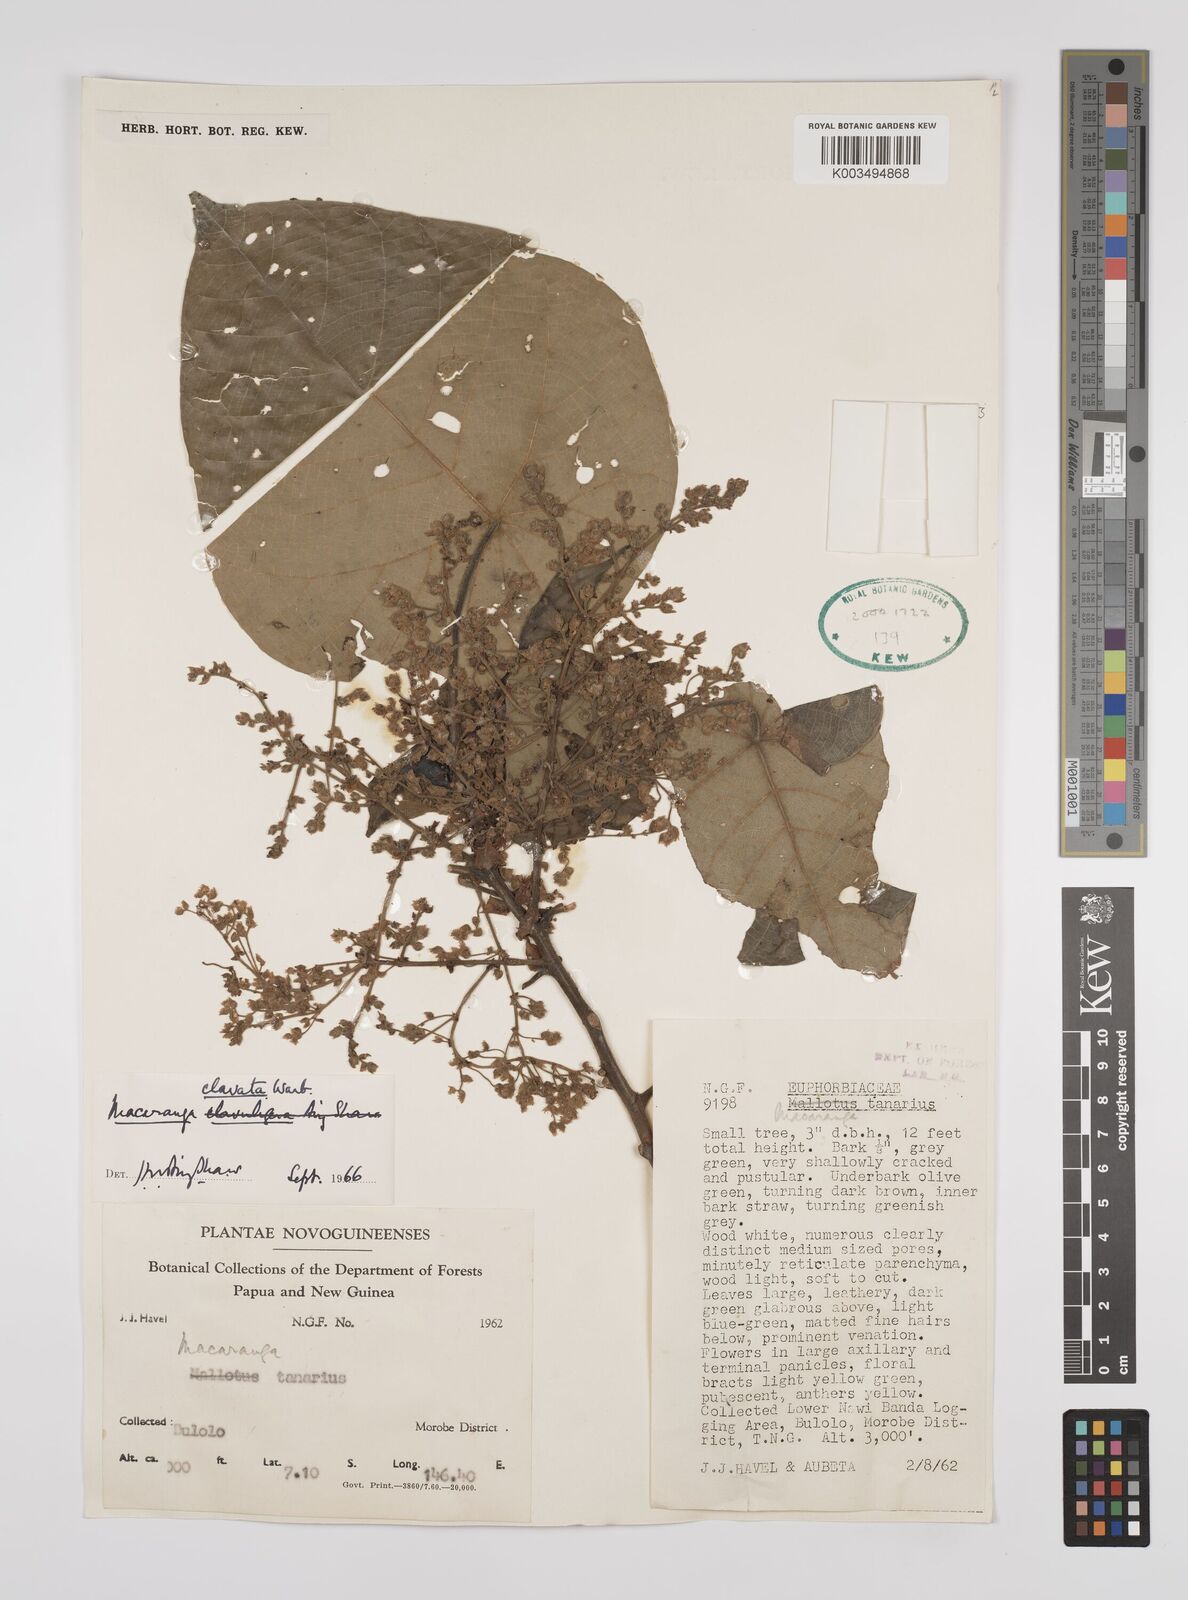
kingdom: Plantae
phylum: Tracheophyta
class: Magnoliopsida
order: Malpighiales
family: Euphorbiaceae
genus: Macaranga
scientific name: Macaranga clavata
